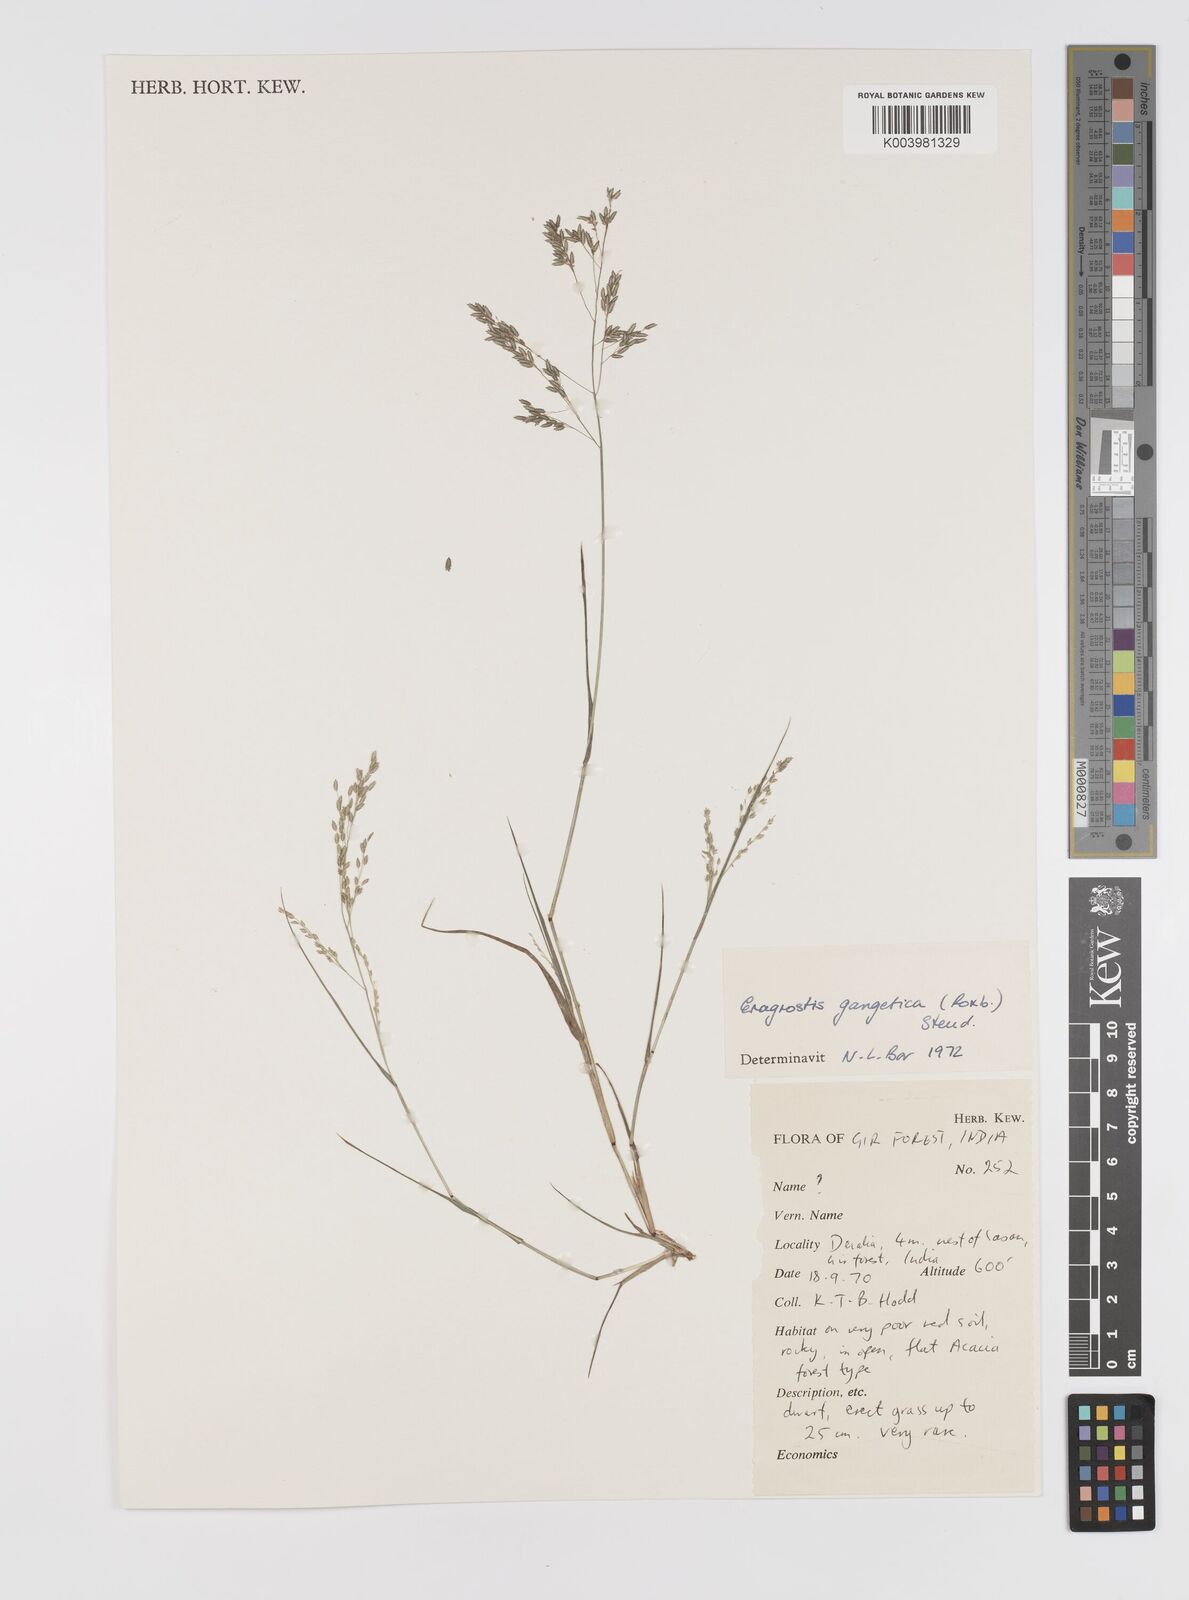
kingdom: Plantae
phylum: Tracheophyta
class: Liliopsida
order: Poales
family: Poaceae
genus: Eragrostis
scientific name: Eragrostis gangetica
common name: Slimflower lovegrass
